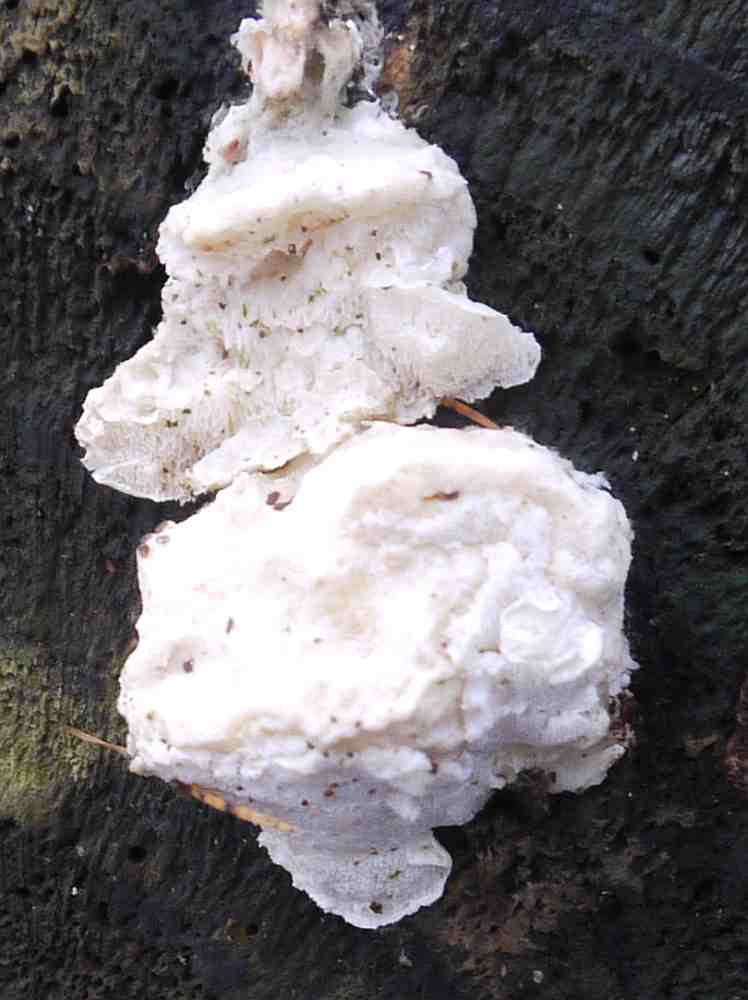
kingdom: Fungi
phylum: Basidiomycota
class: Agaricomycetes
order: Polyporales
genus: Amaropostia
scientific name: Amaropostia stiptica
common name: bitter kødporesvamp
